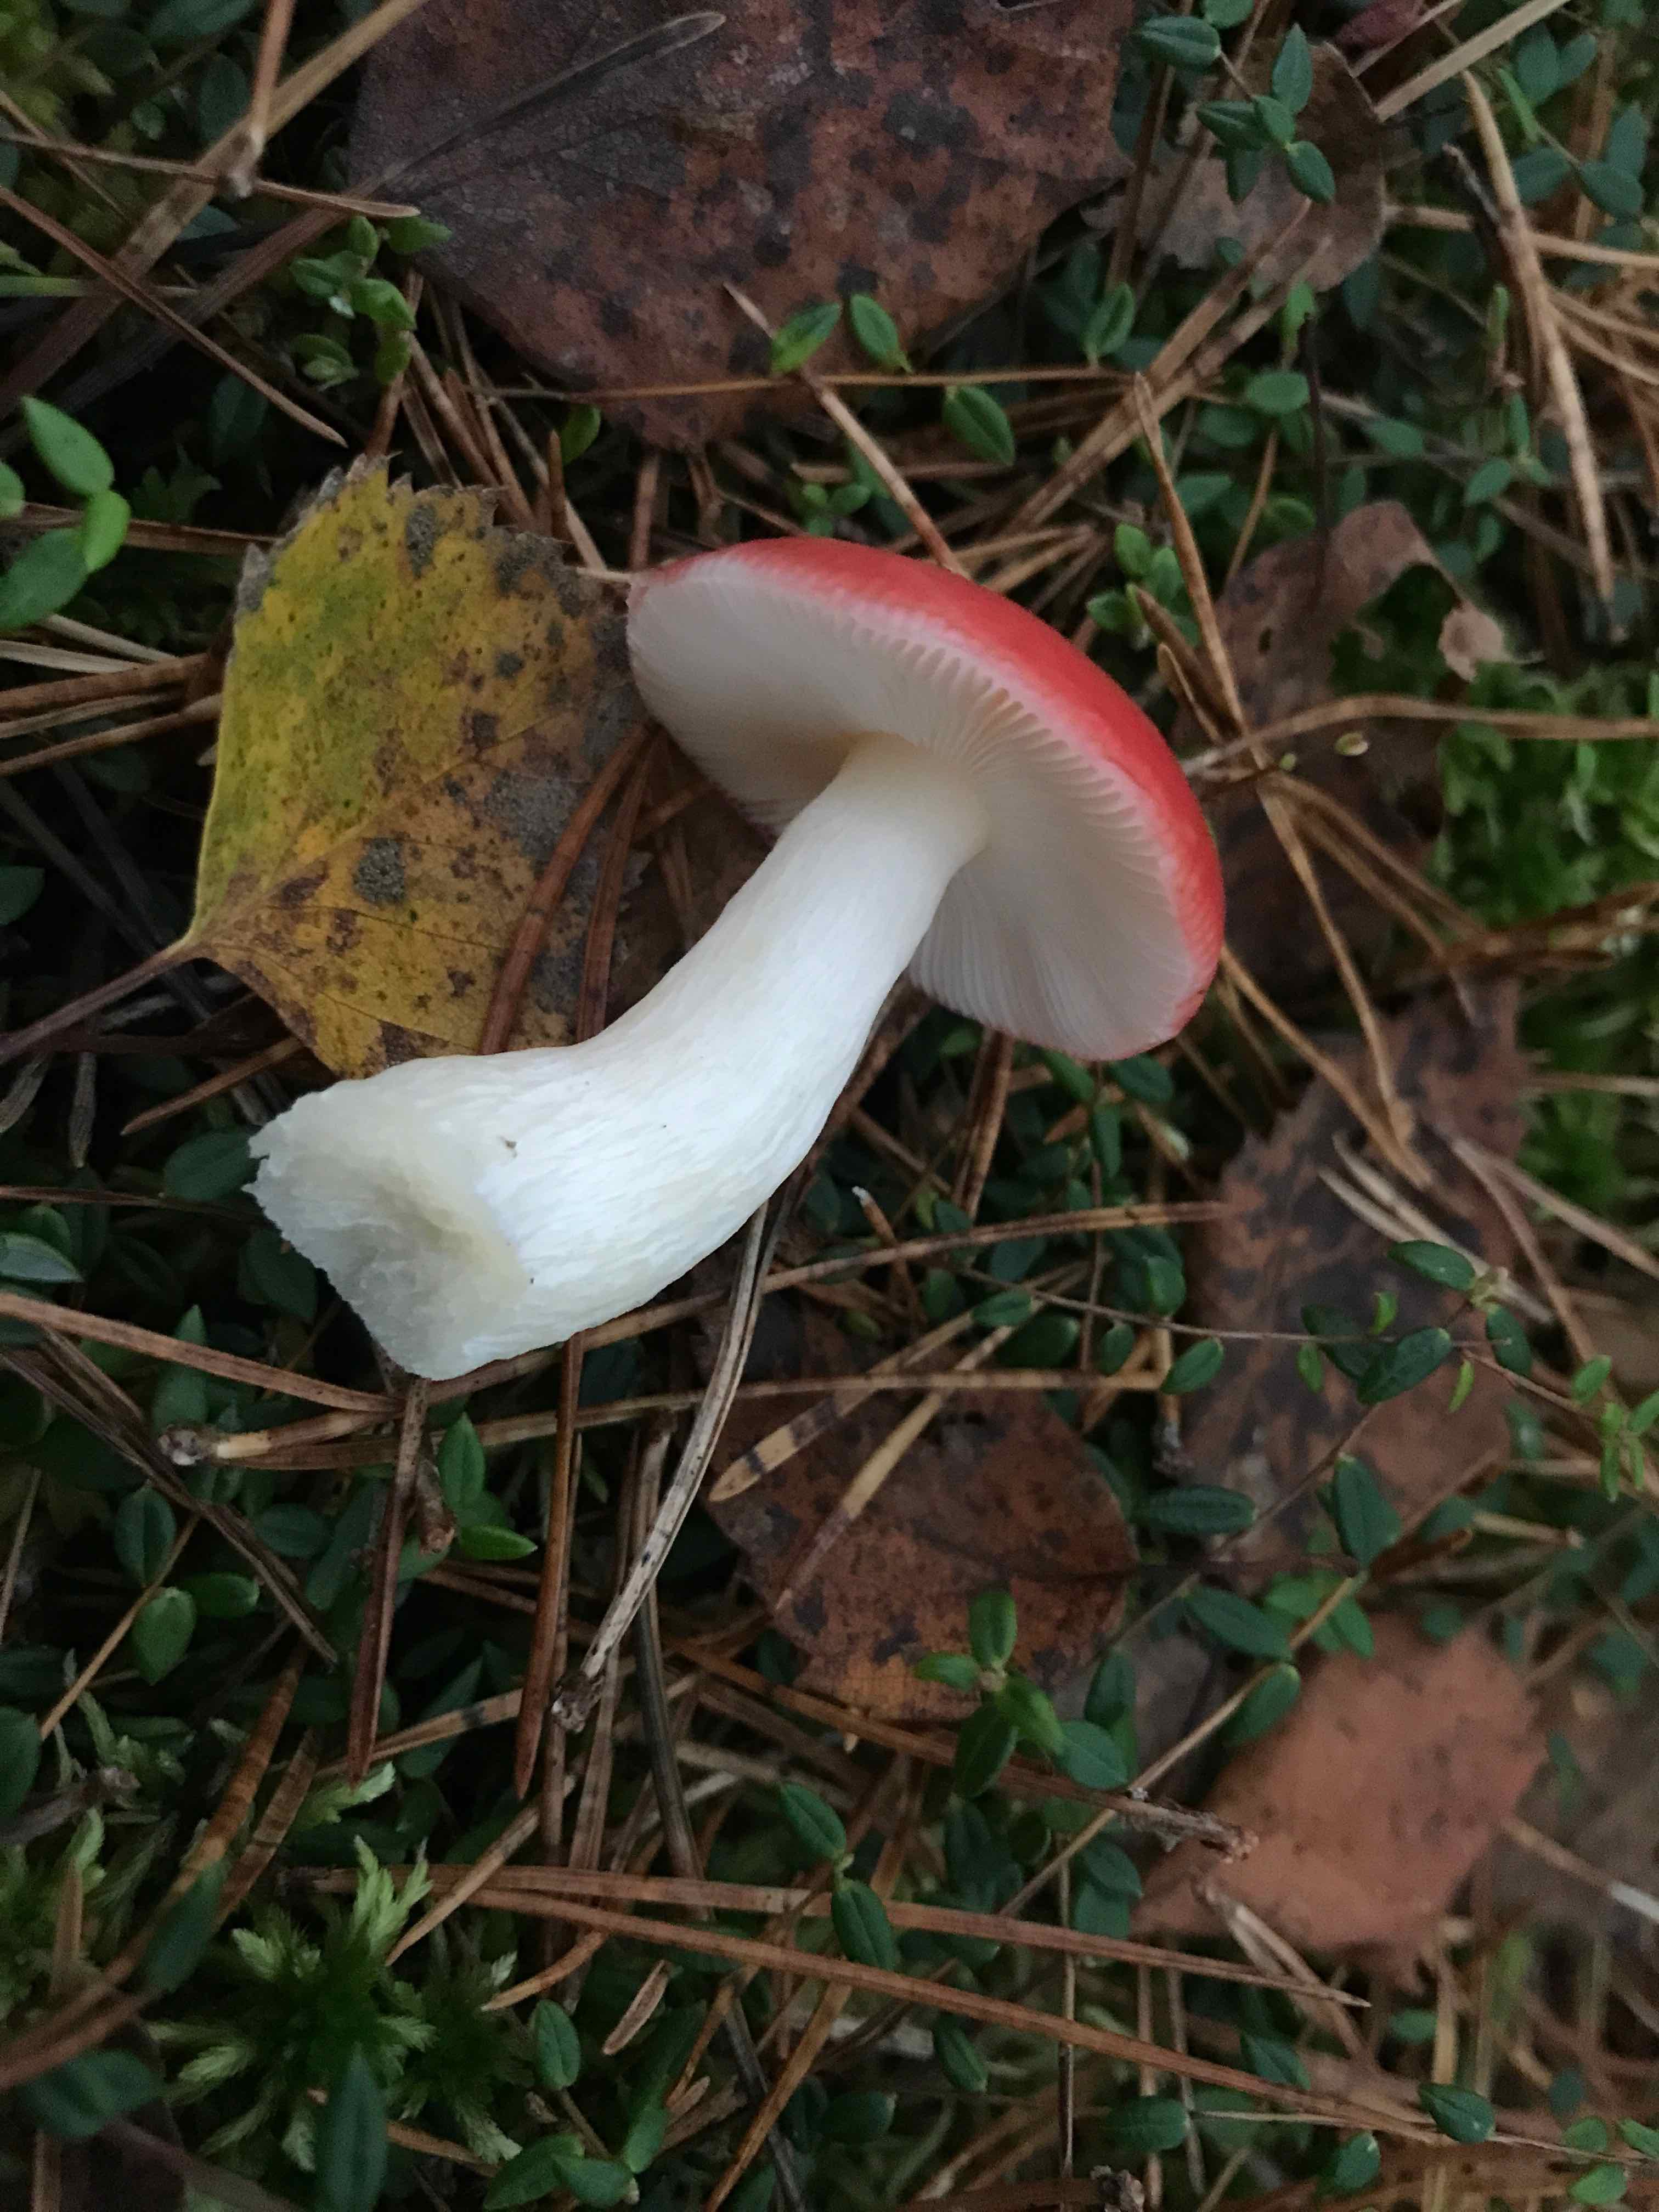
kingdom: Fungi
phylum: Basidiomycota
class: Agaricomycetes
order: Russulales
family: Russulaceae
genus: Russula
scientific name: Russula
